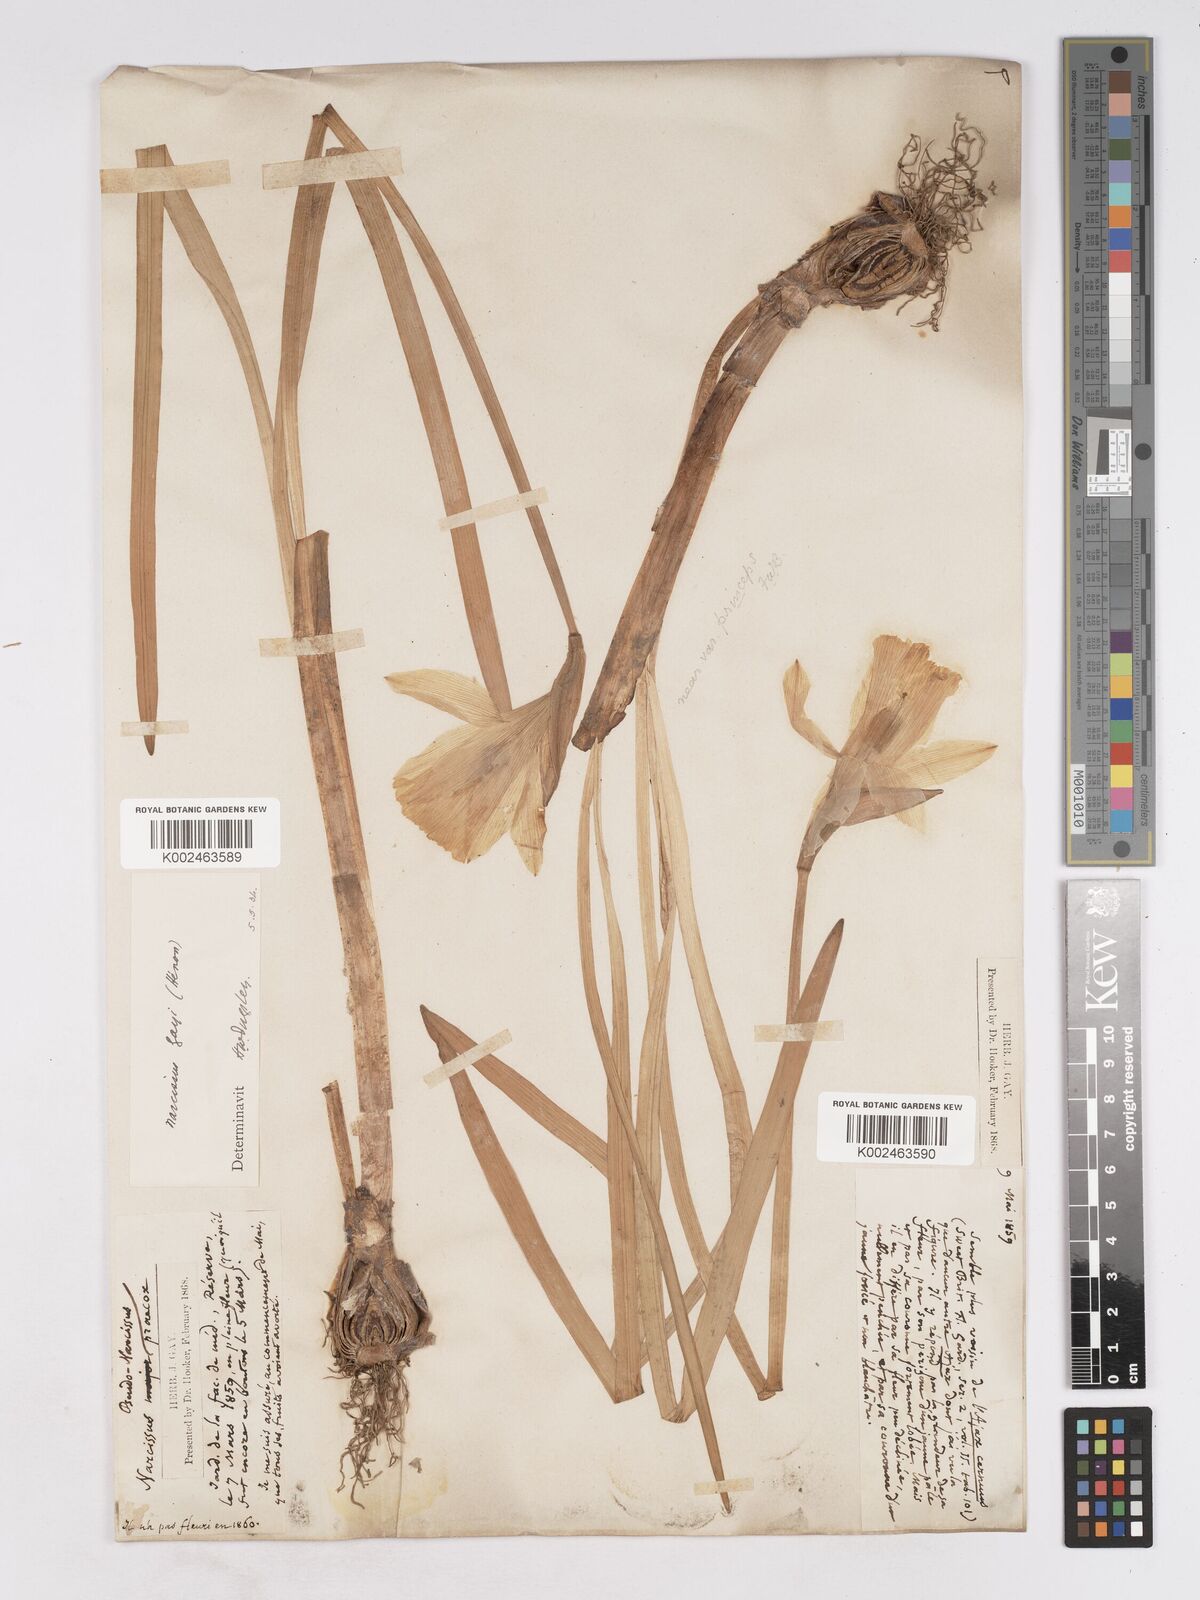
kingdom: Plantae
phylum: Tracheophyta
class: Liliopsida
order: Asparagales
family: Amaryllidaceae
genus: Narcissus
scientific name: Narcissus pseudonarcissus
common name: Daffodil
